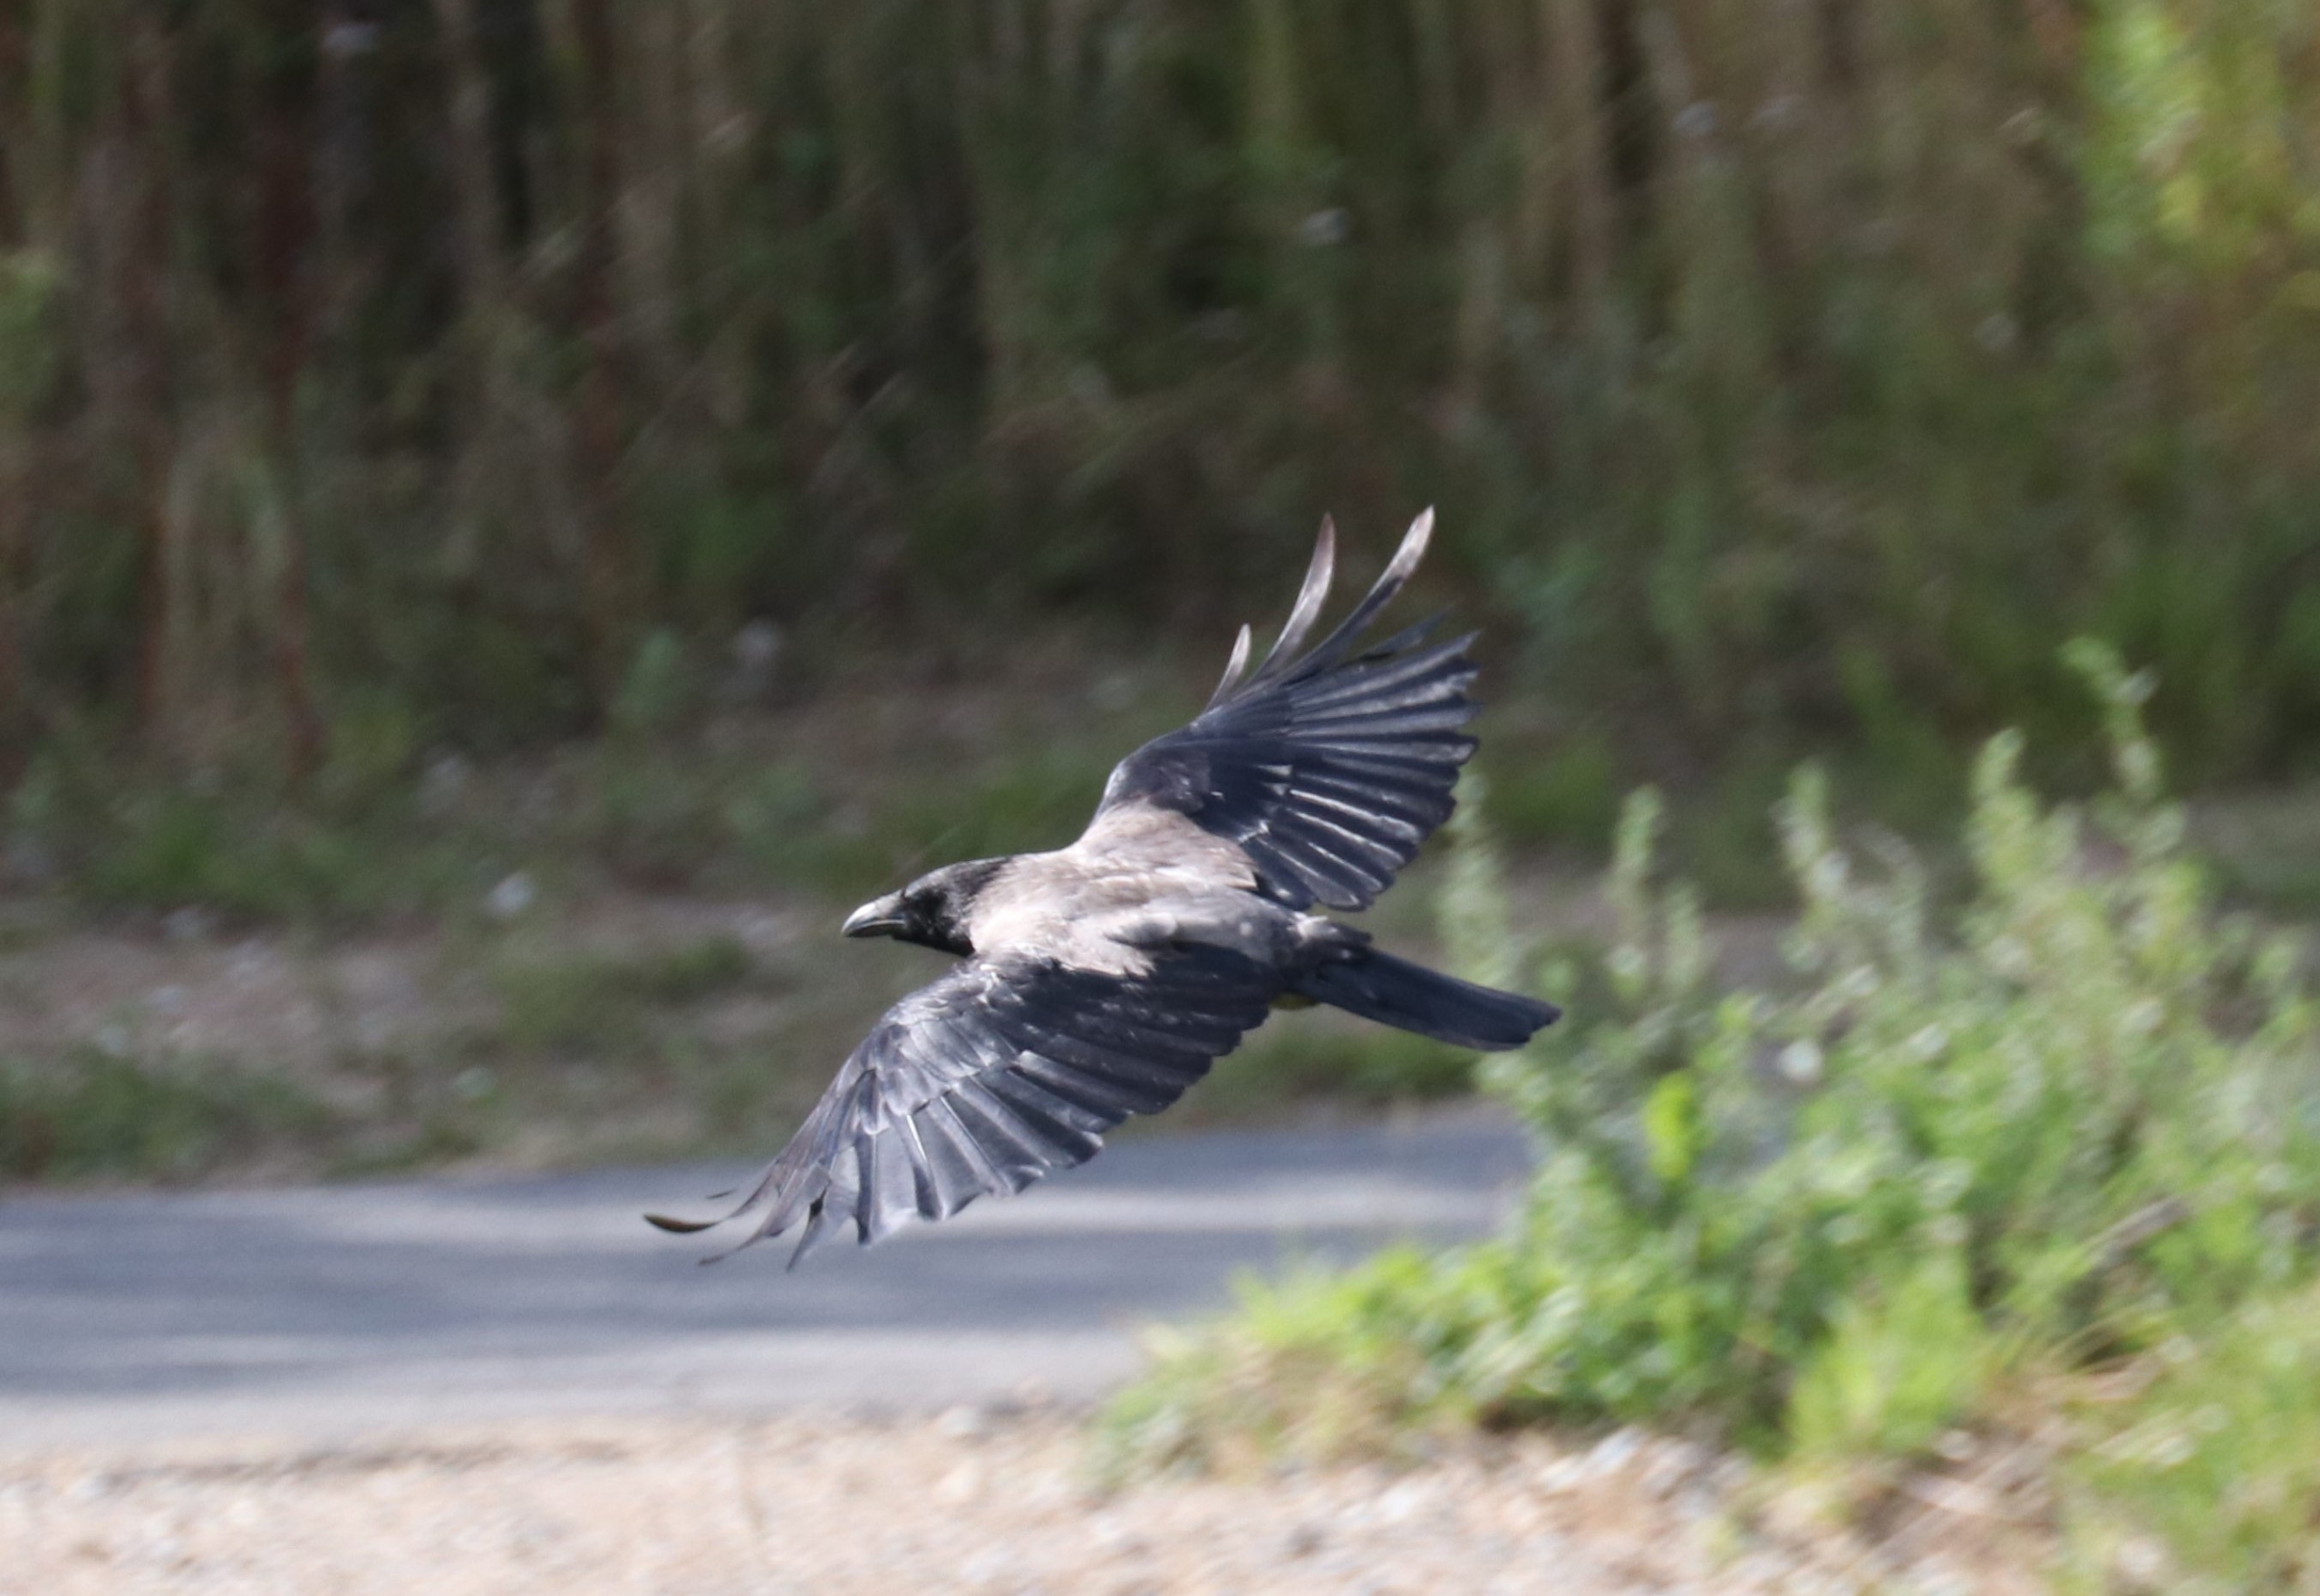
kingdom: Animalia
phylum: Chordata
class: Aves
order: Passeriformes
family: Corvidae
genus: Corvus
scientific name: Corvus cornix
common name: Gråkrage
